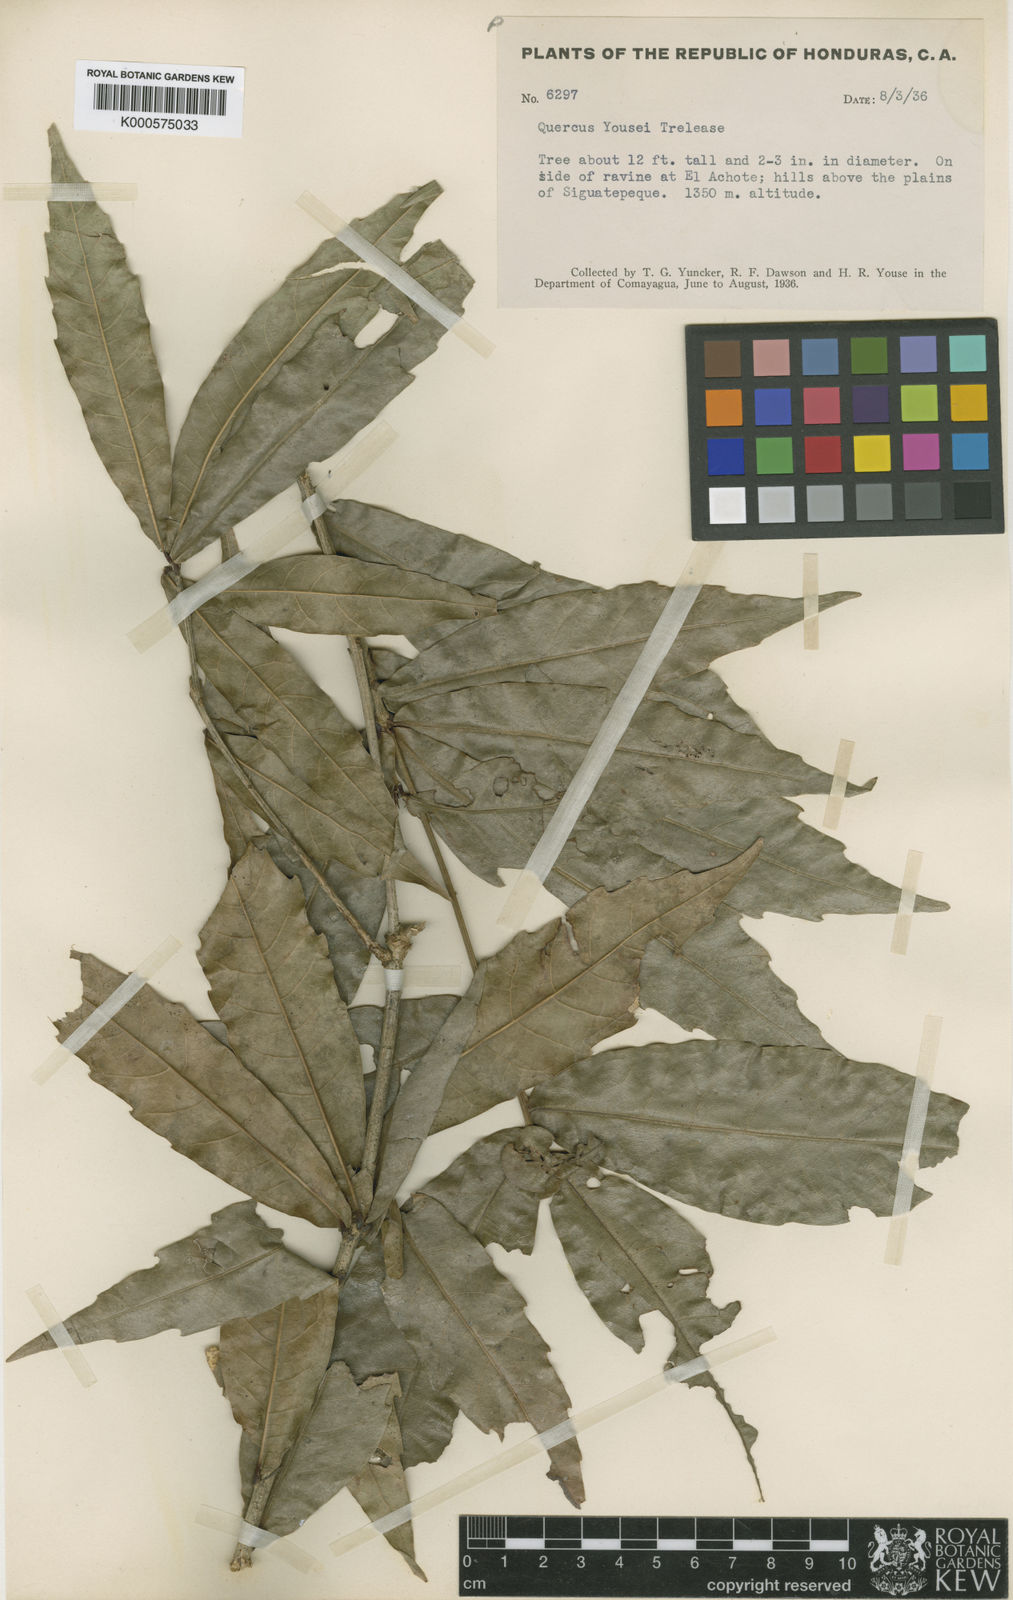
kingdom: Plantae
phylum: Tracheophyta
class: Magnoliopsida
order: Fagales
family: Fagaceae
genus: Quercus
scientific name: Quercus corrugata
